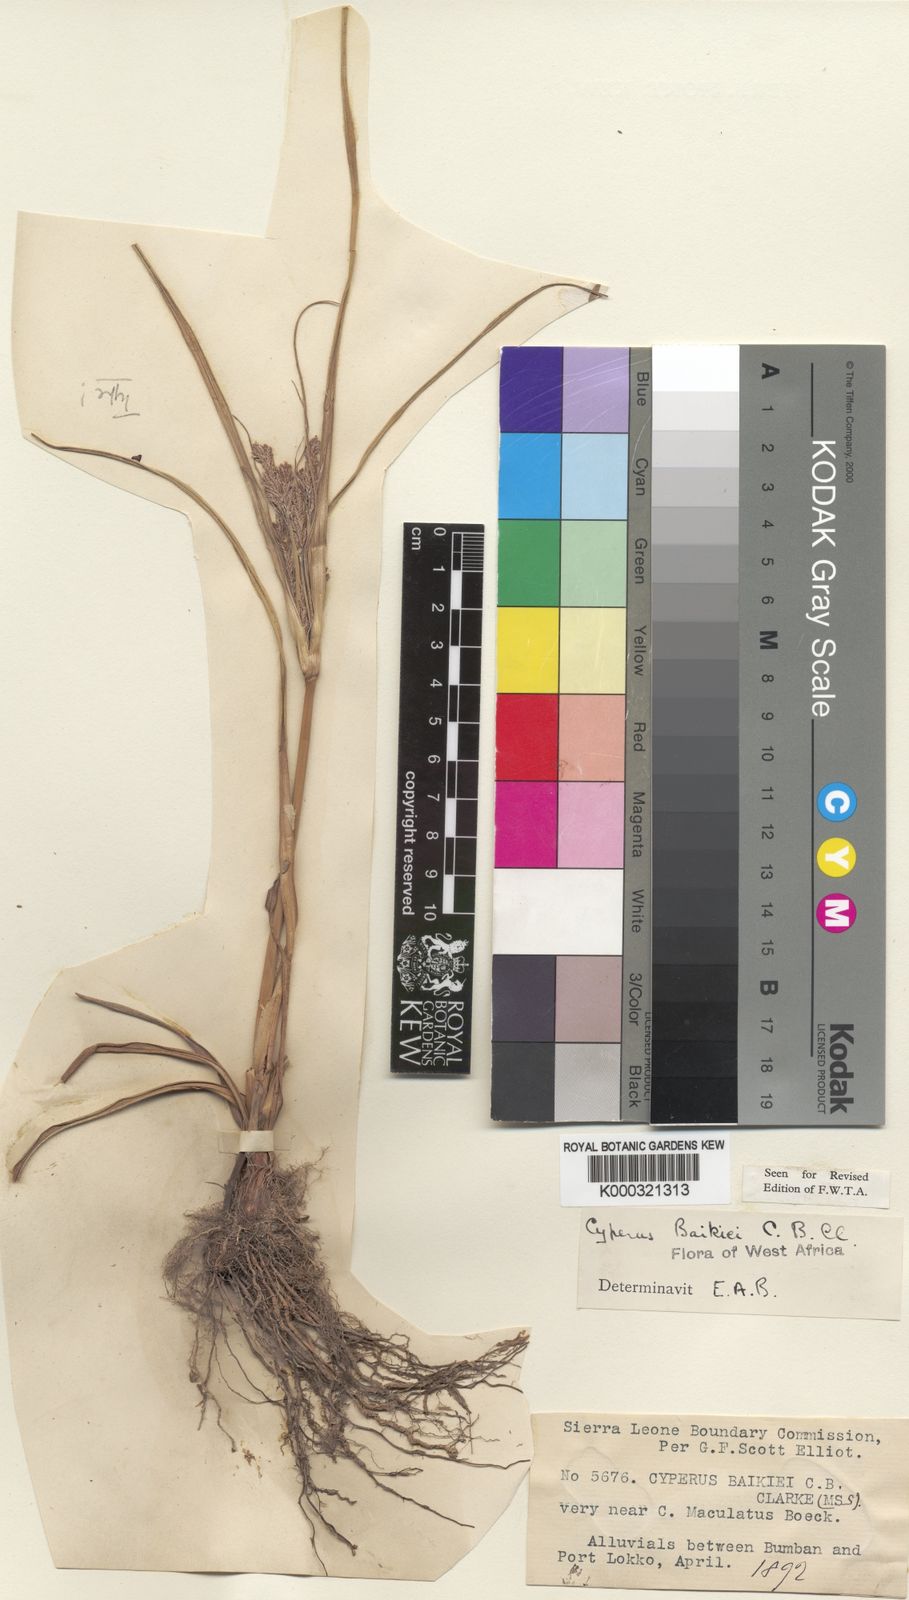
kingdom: Plantae
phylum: Tracheophyta
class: Liliopsida
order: Poales
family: Cyperaceae
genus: Cyperus
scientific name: Cyperus
